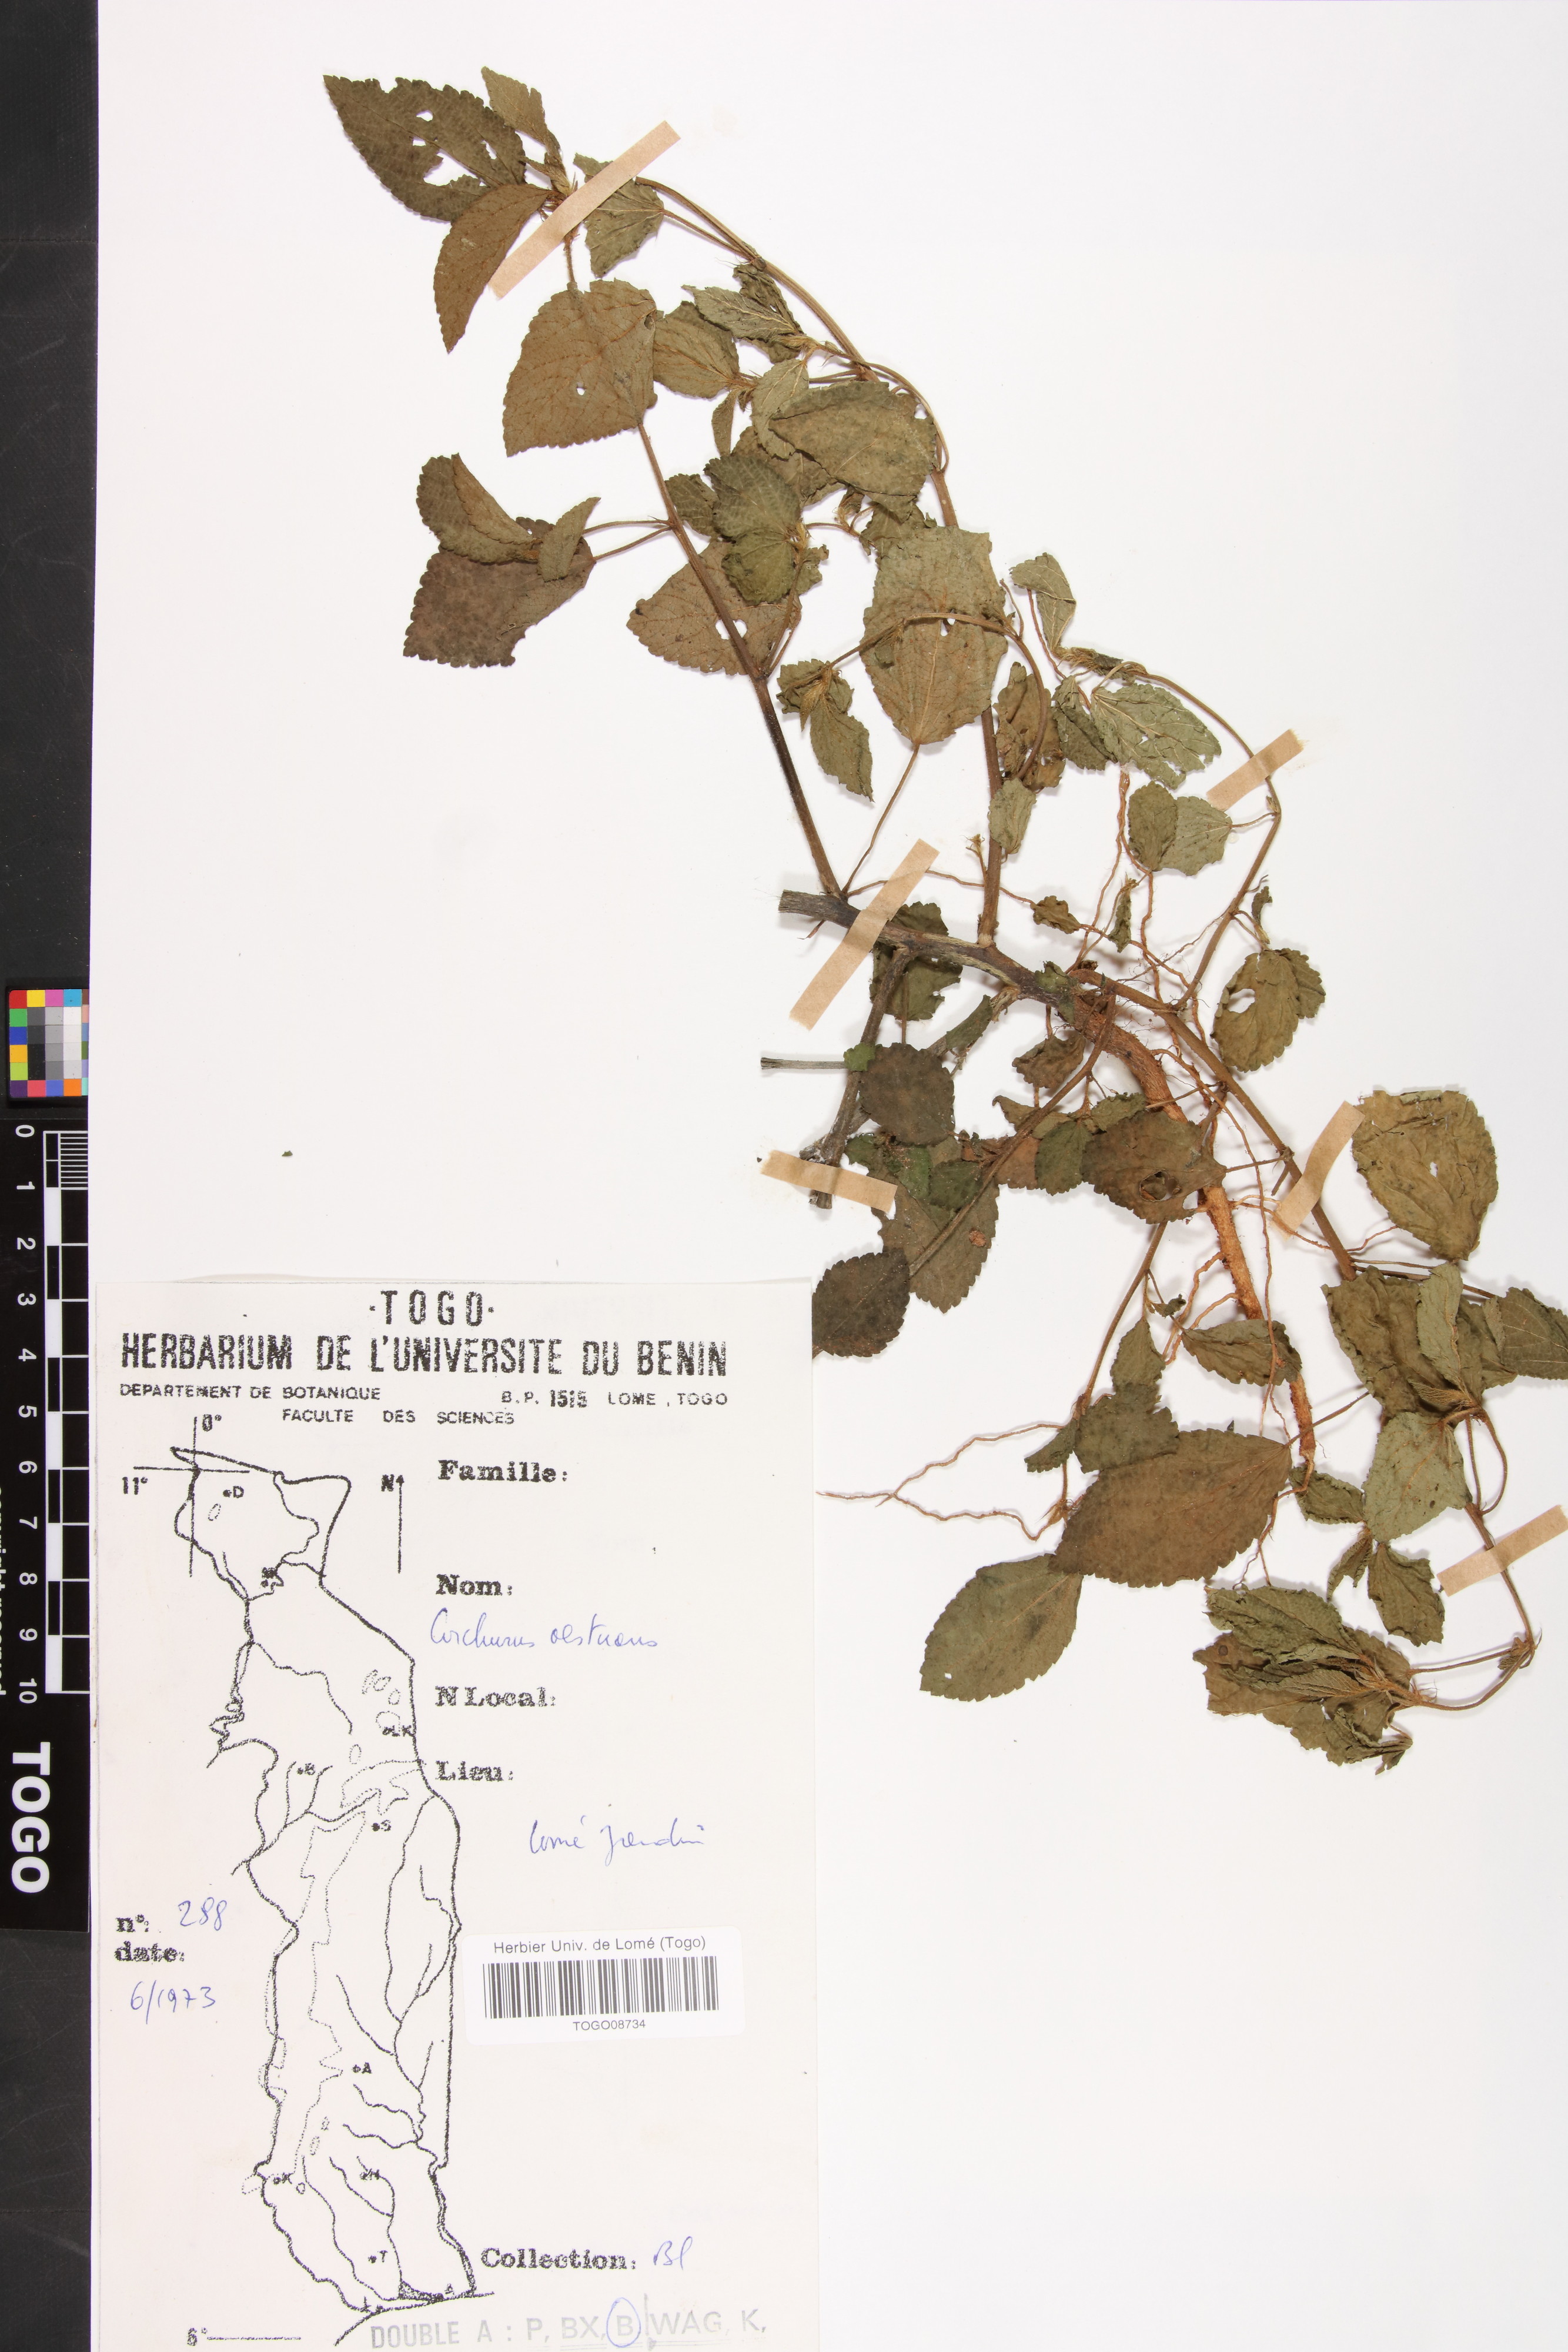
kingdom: Plantae
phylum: Tracheophyta
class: Magnoliopsida
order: Malvales
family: Malvaceae
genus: Corchorus
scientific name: Corchorus aestuans
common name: Jute
